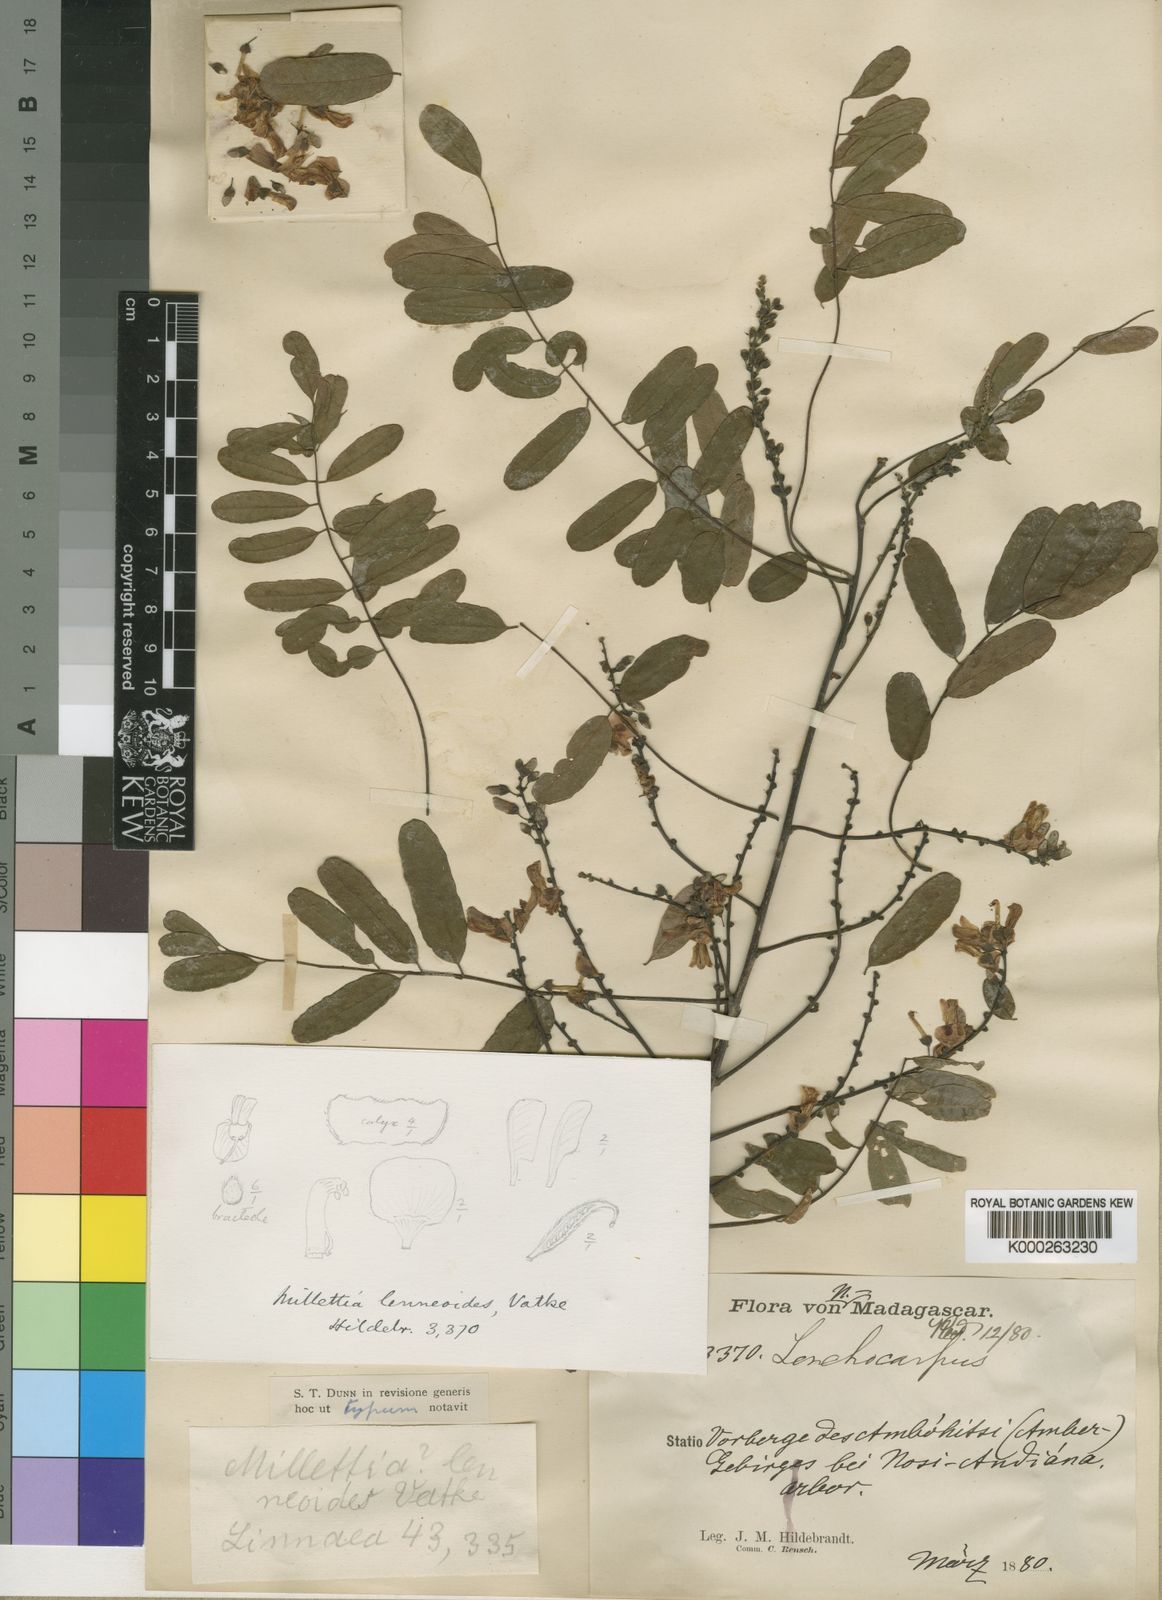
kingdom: Plantae
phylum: Tracheophyta
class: Magnoliopsida
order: Fabales
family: Fabaceae
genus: Millettia
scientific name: Millettia lenneoides
